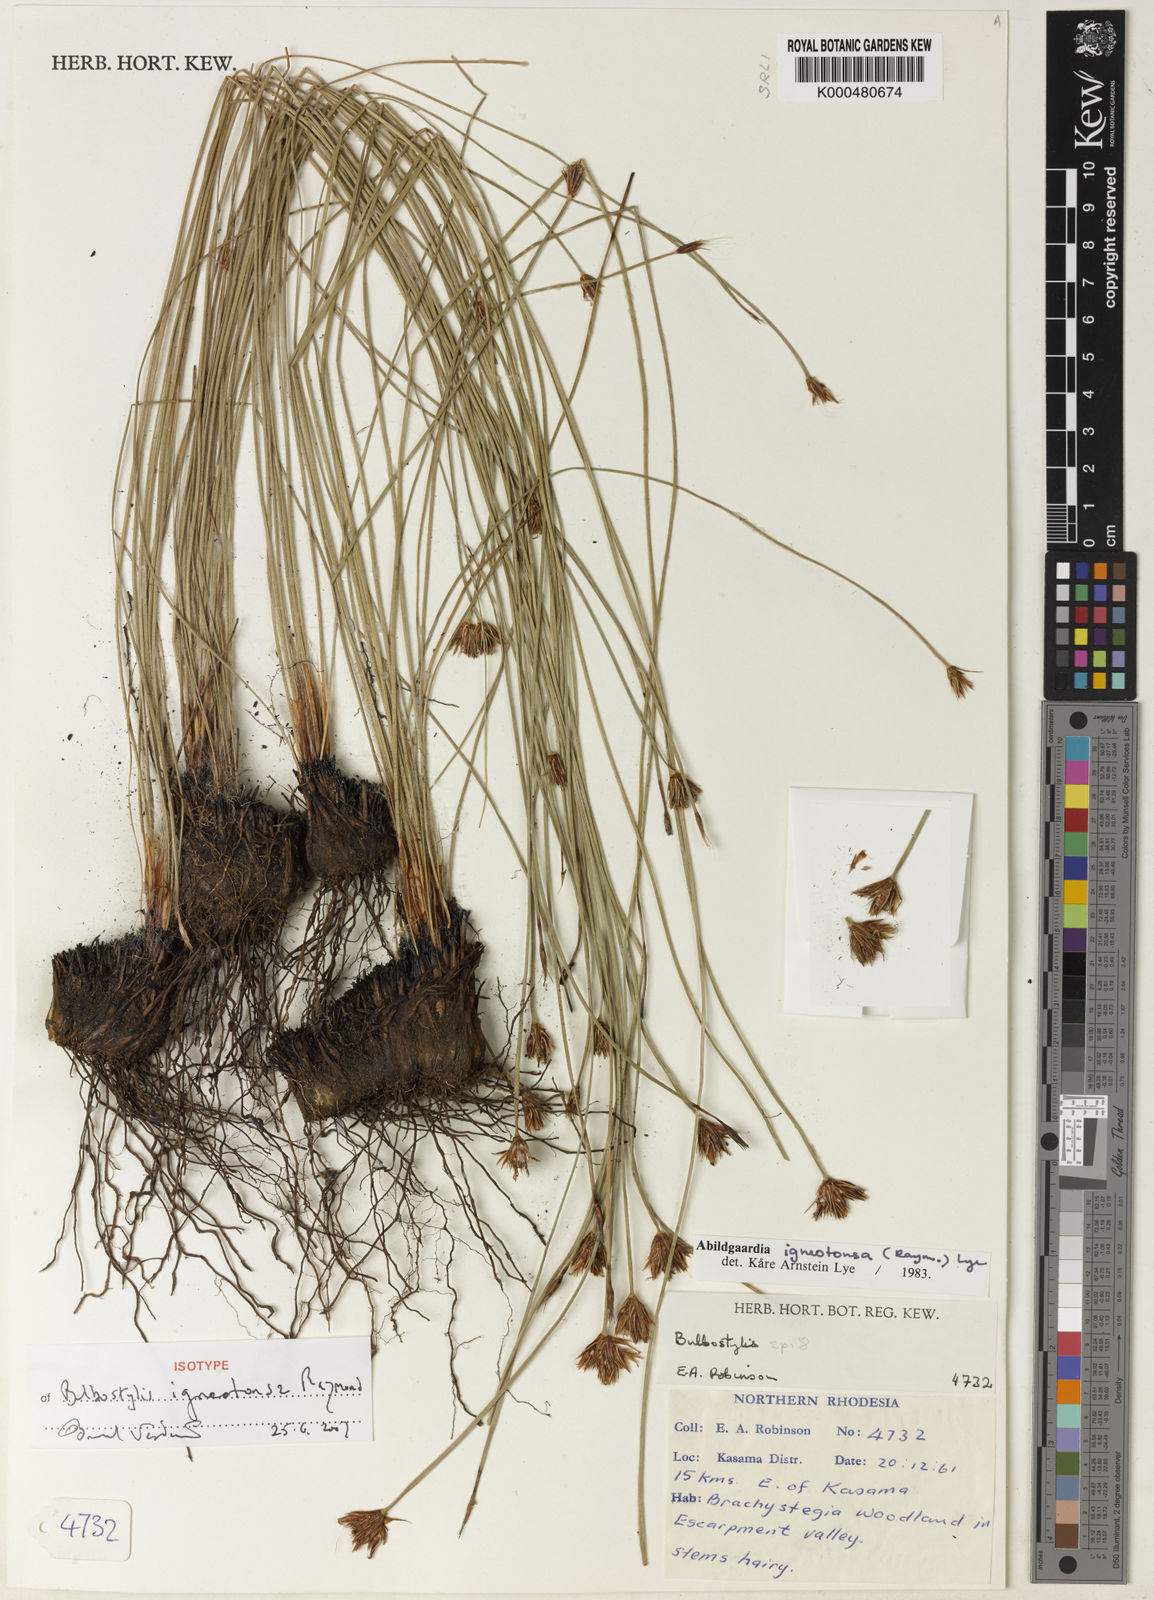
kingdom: Plantae
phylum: Tracheophyta
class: Liliopsida
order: Poales
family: Cyperaceae
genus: Bulbostylis
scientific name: Bulbostylis igneotonsa
